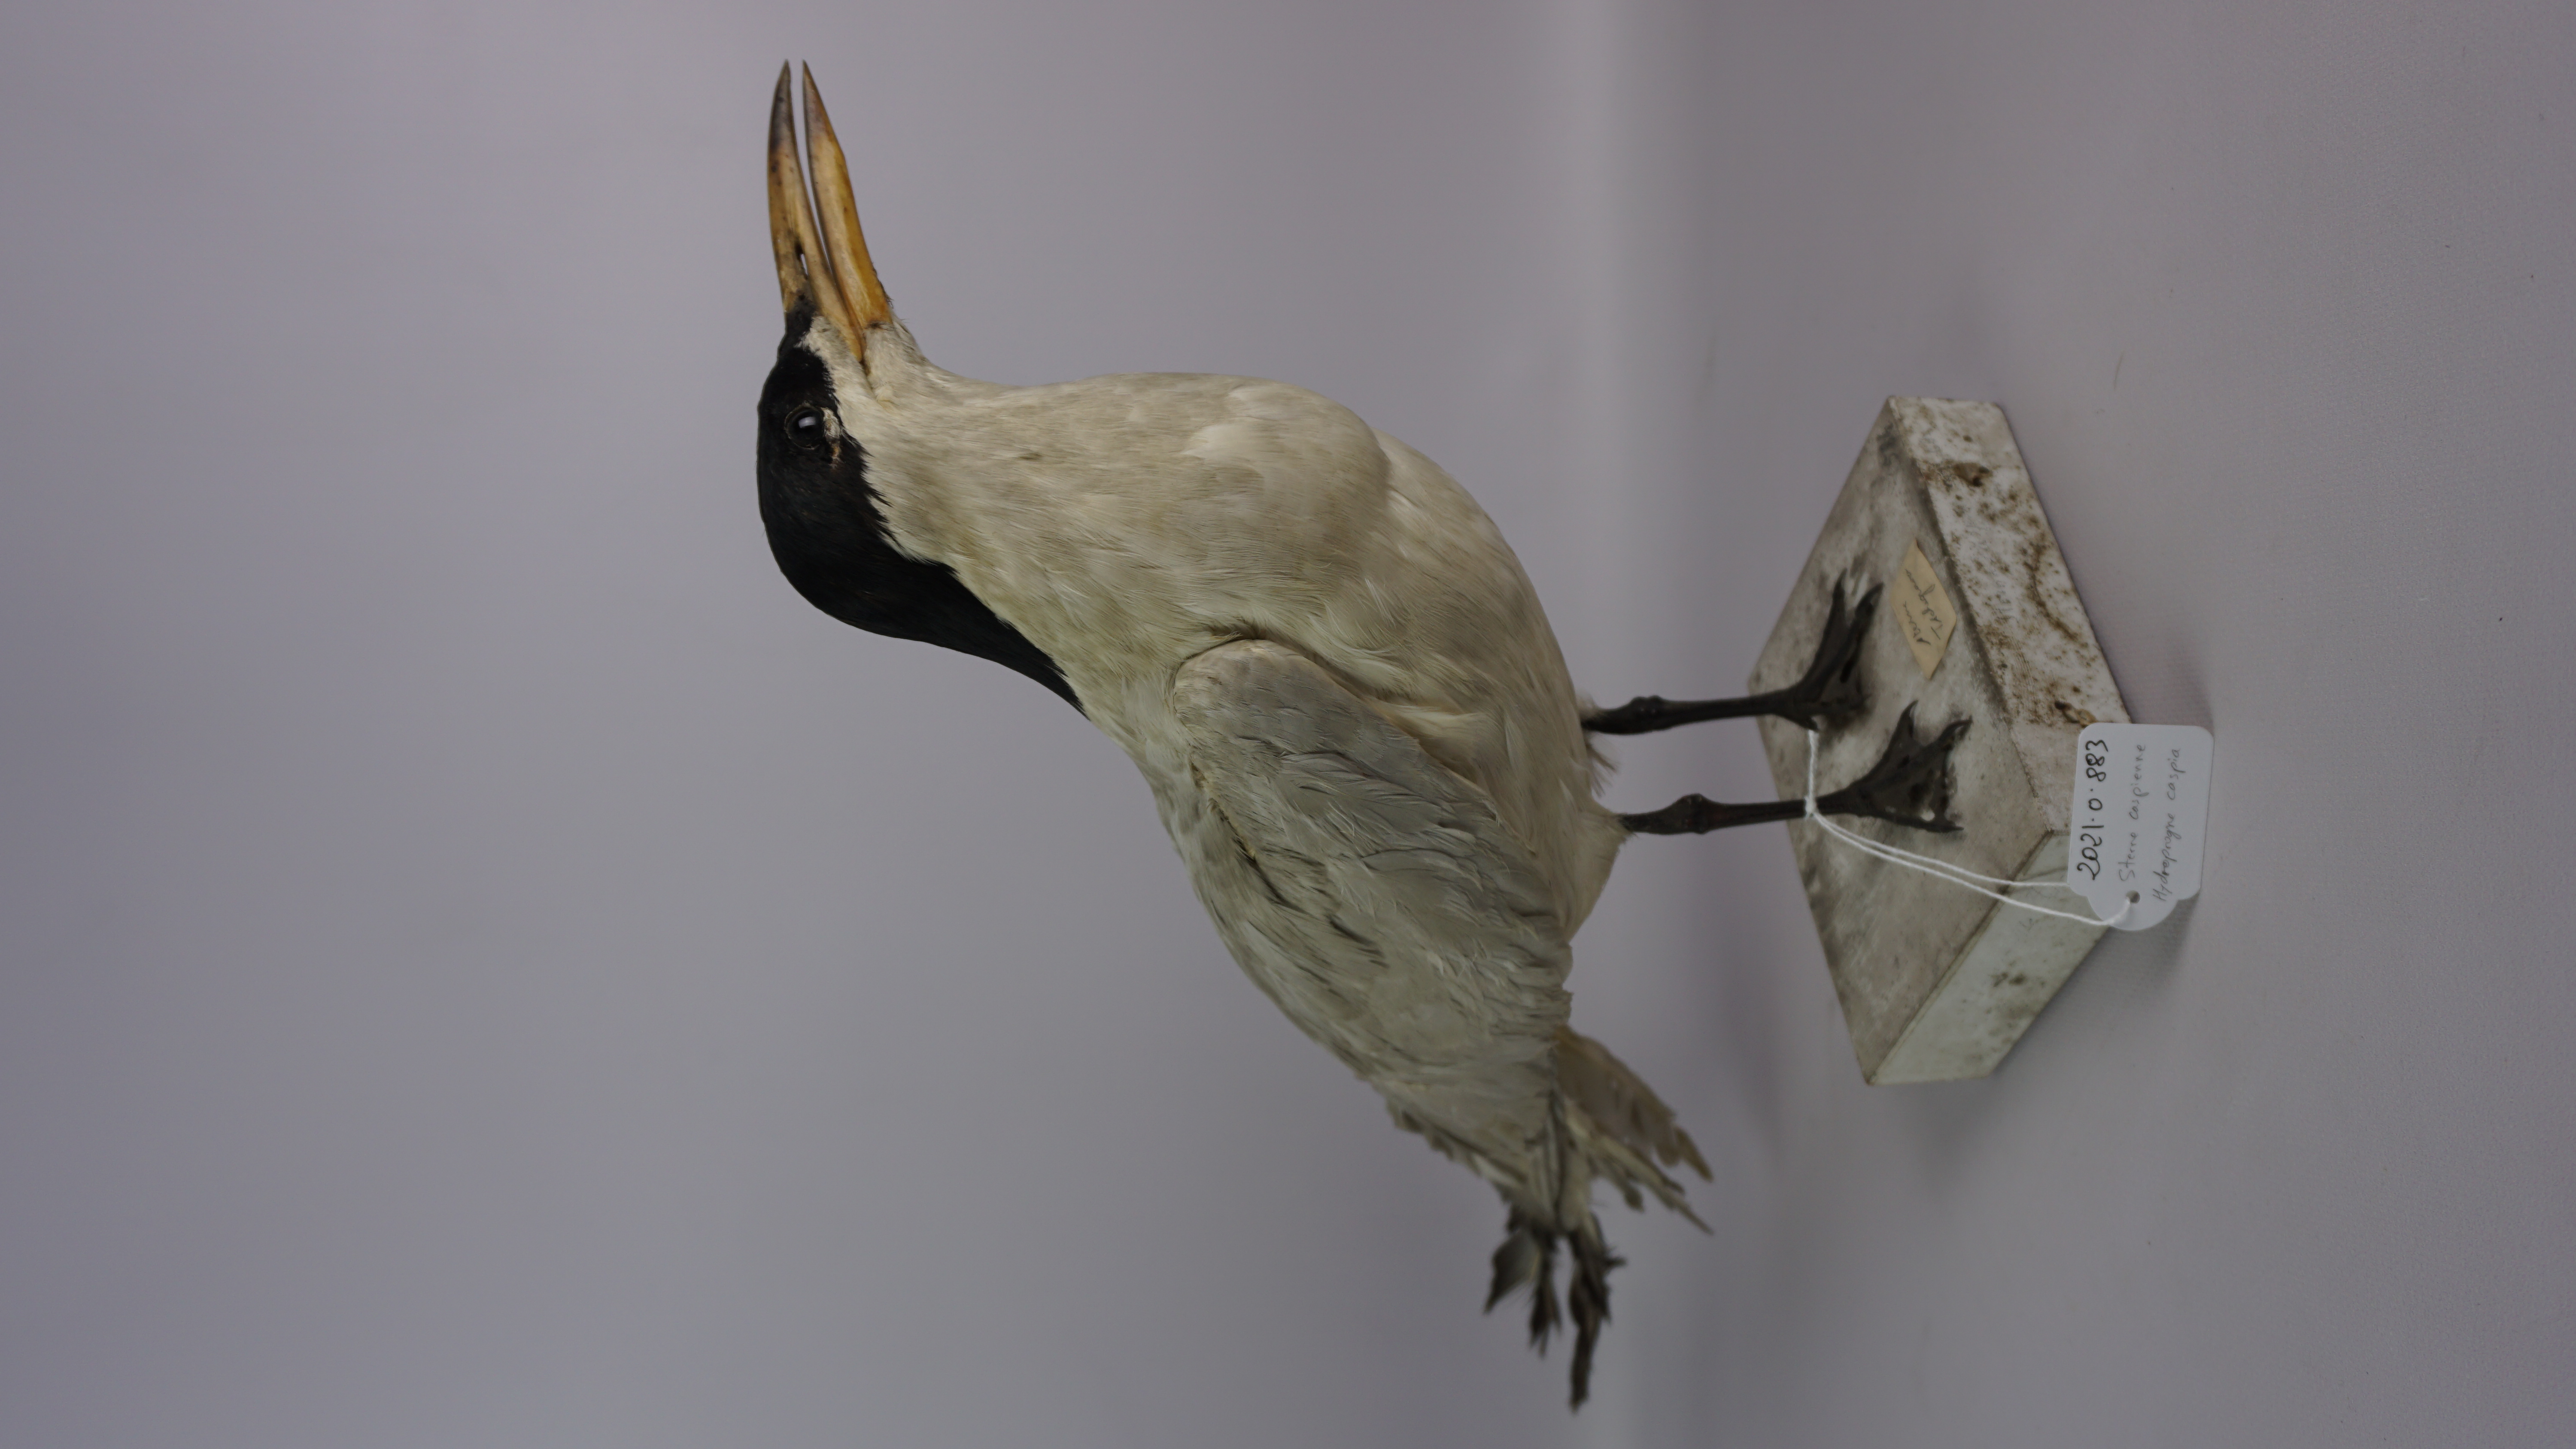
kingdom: Animalia
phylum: Chordata
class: Aves
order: Charadriiformes
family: Laridae
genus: Hydroprogne
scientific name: Hydroprogne caspia
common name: Caspian tern
